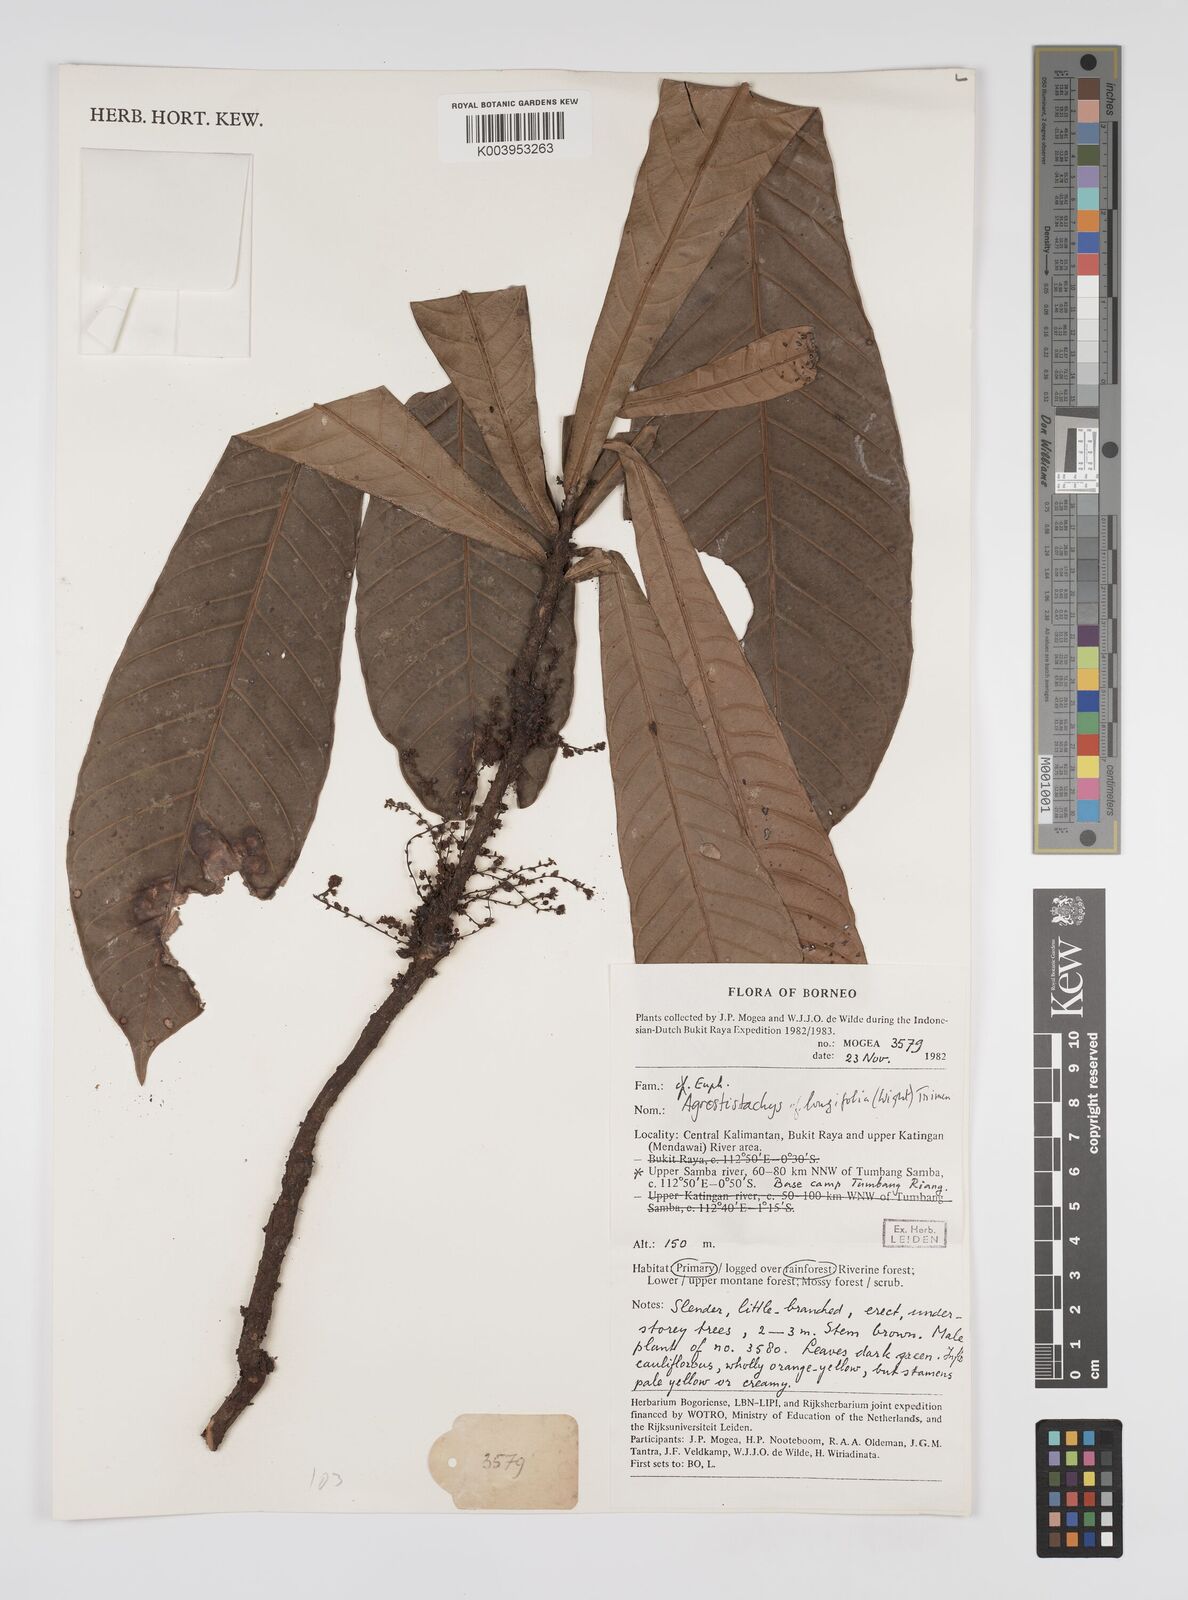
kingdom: Plantae
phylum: Tracheophyta
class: Magnoliopsida
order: Malpighiales
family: Euphorbiaceae
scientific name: Euphorbiaceae
